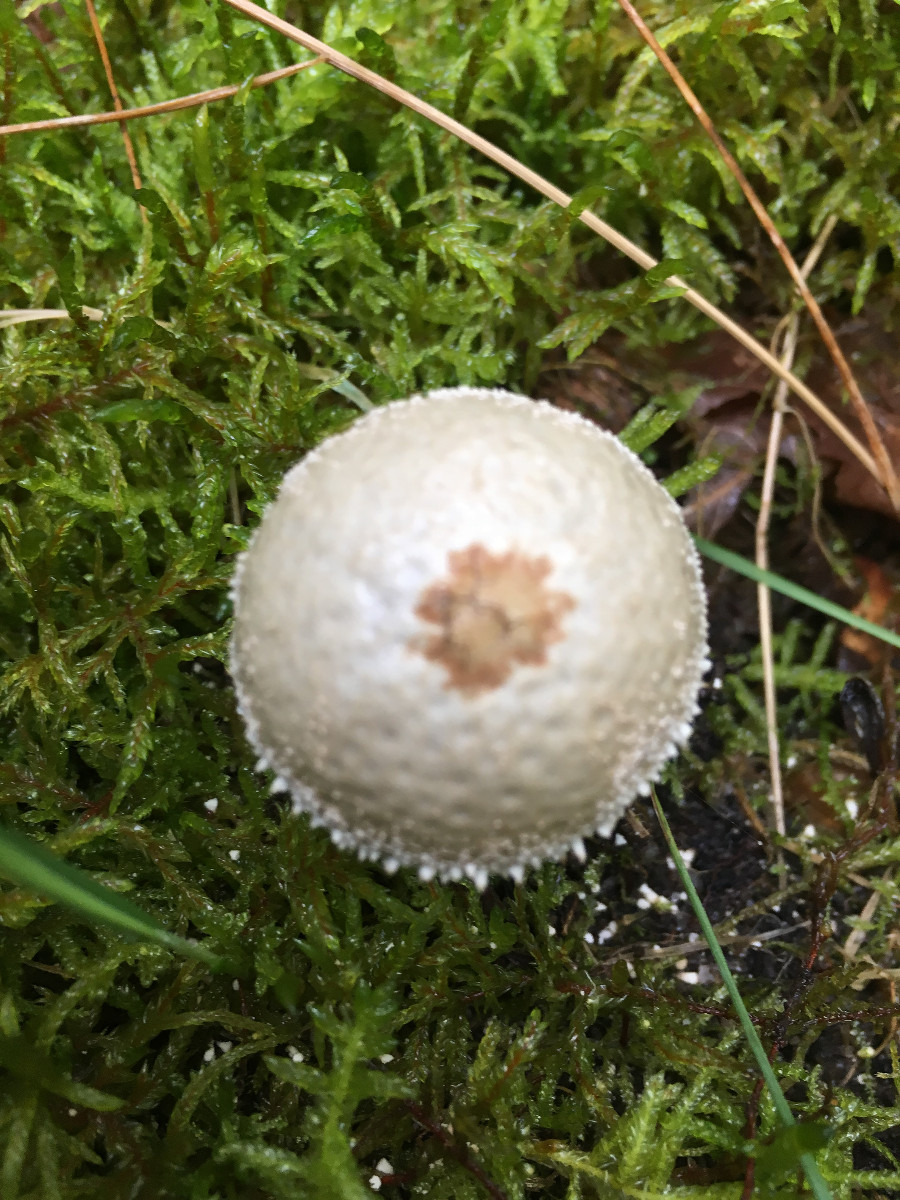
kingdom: Fungi
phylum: Basidiomycota
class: Agaricomycetes
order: Agaricales
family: Lycoperdaceae
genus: Lycoperdon
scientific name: Lycoperdon perlatum
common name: krystal-støvbold
